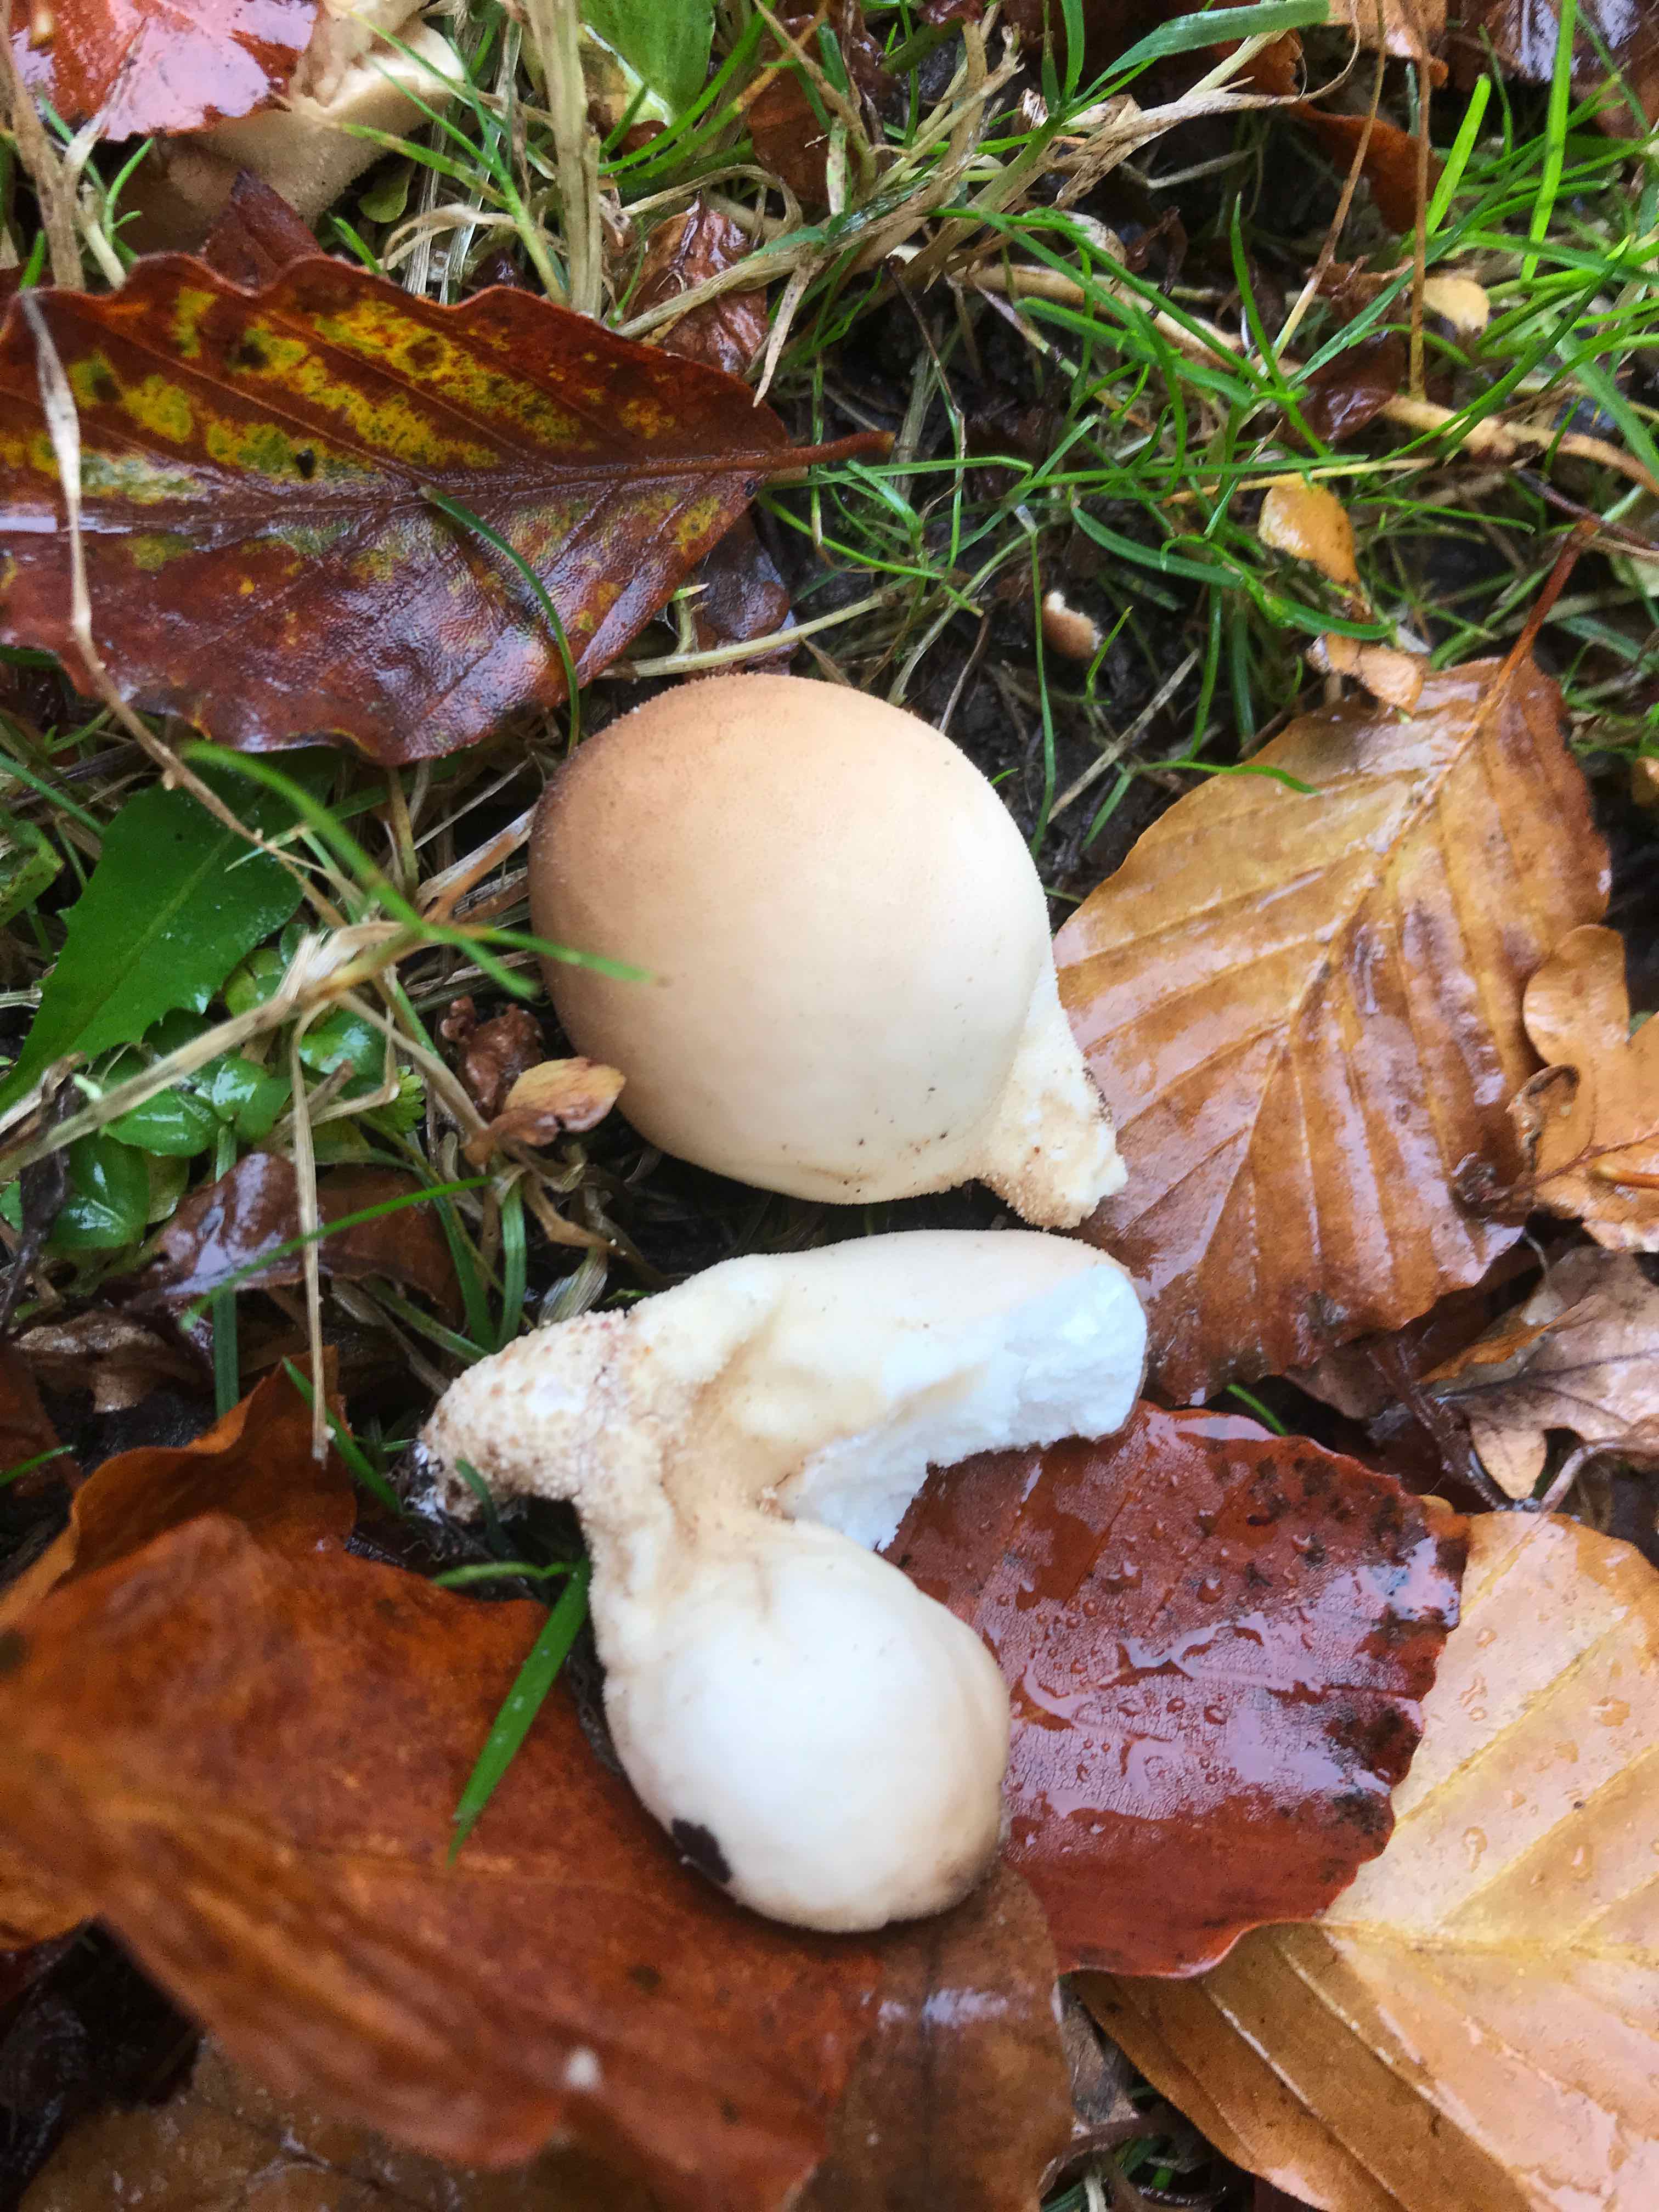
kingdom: Fungi
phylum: Basidiomycota
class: Agaricomycetes
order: Agaricales
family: Lycoperdaceae
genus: Apioperdon
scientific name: Apioperdon pyriforme
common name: pære-støvbold
